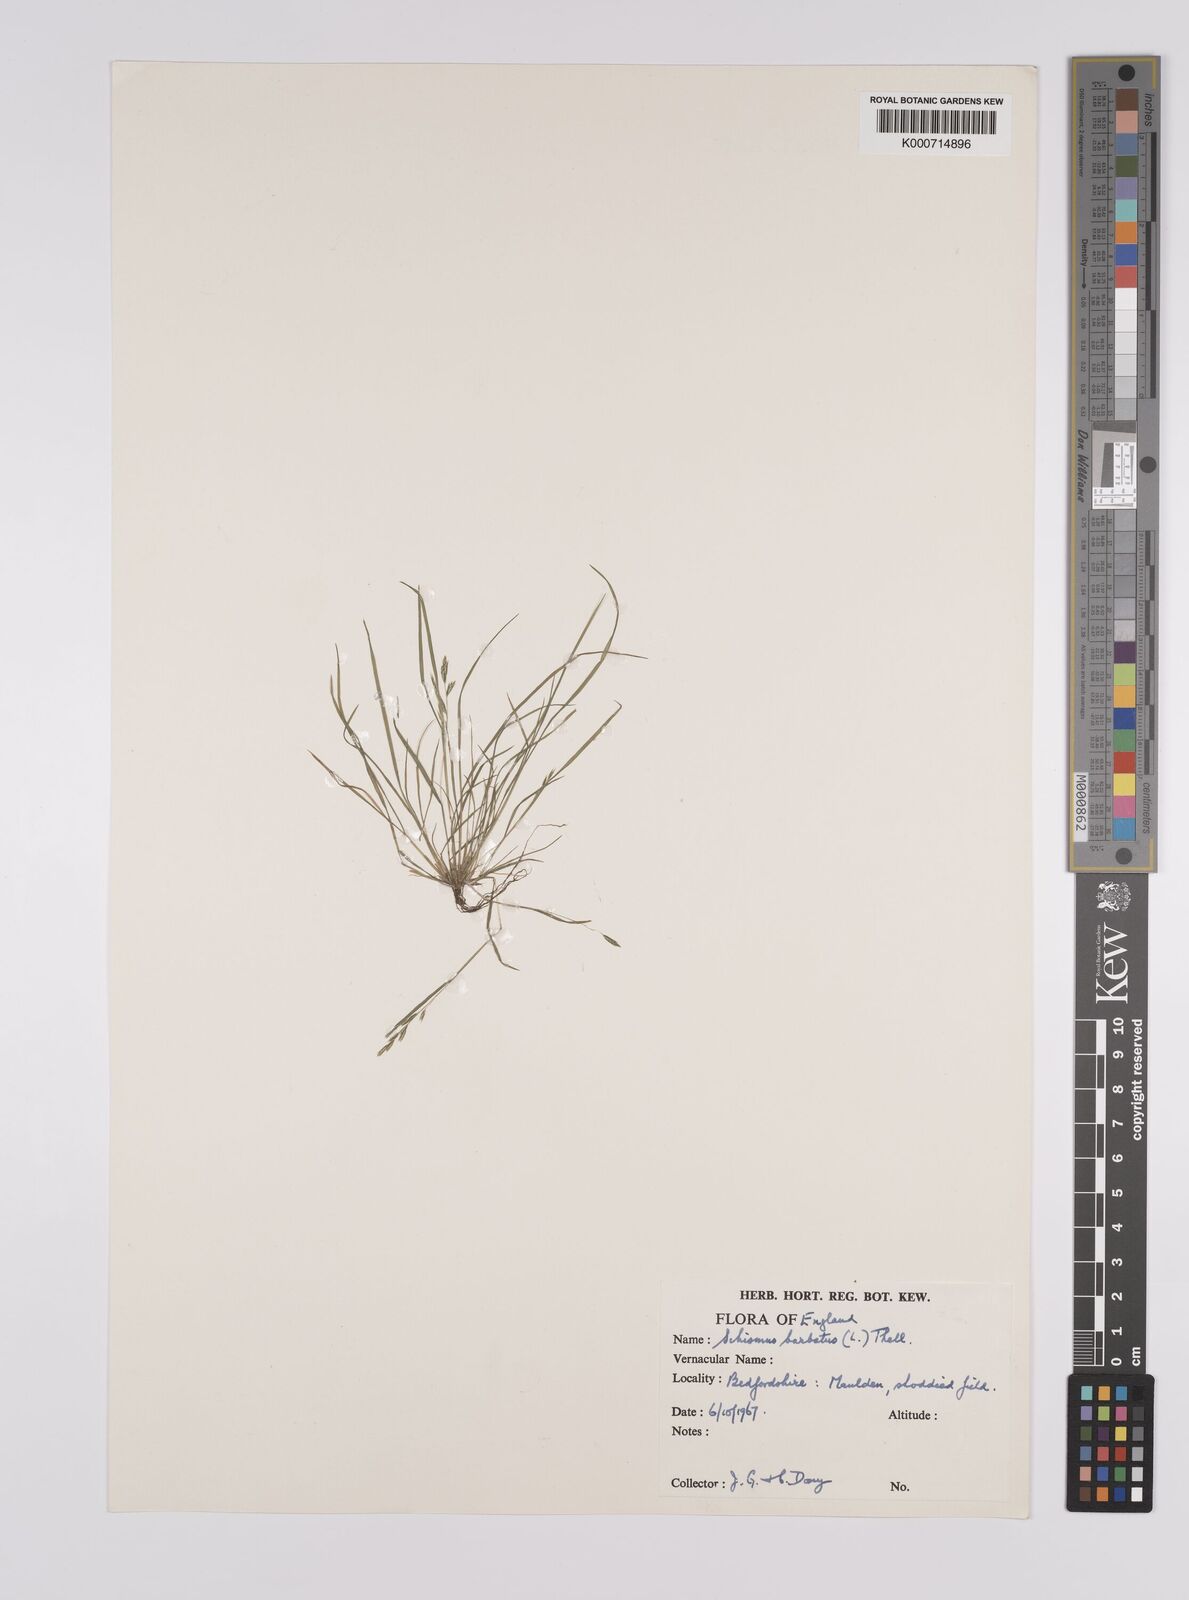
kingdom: Plantae
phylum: Tracheophyta
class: Liliopsida
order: Poales
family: Poaceae
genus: Schismus
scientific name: Schismus barbatus
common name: Kelch-grass
